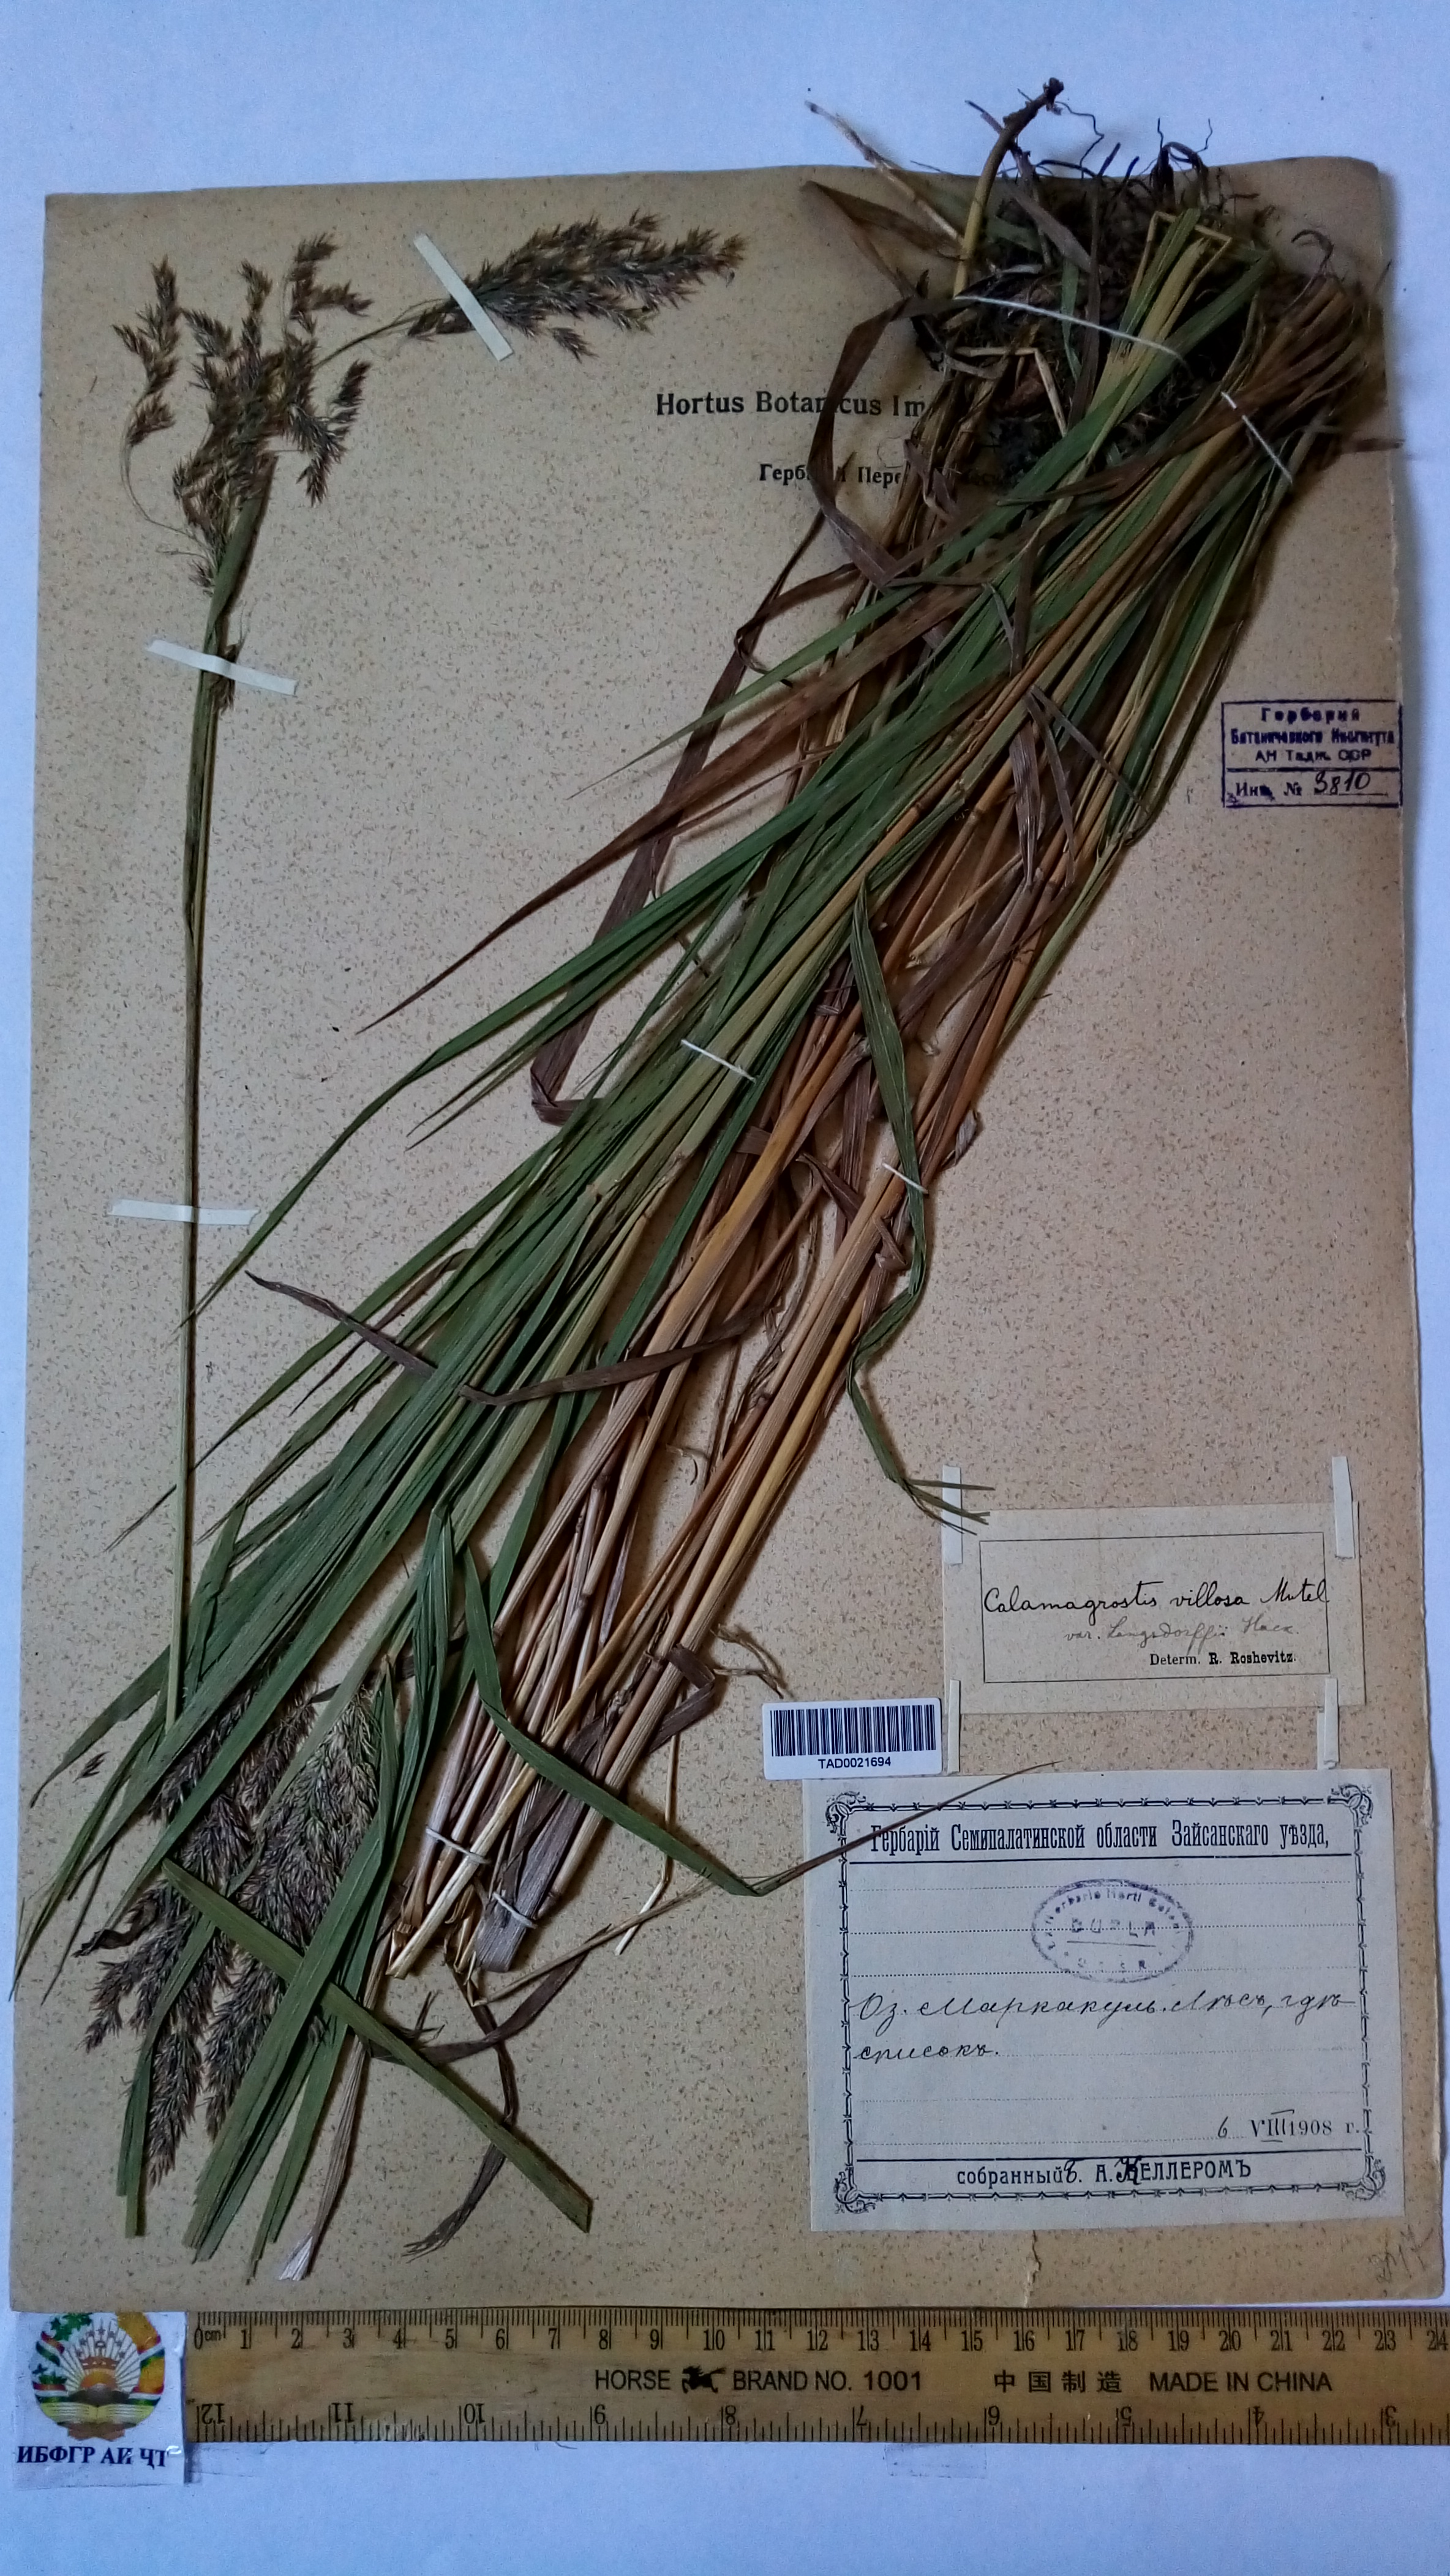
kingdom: Plantae
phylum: Tracheophyta
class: Liliopsida
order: Poales
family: Poaceae
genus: Calamagrostis
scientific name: Calamagrostis villosa
